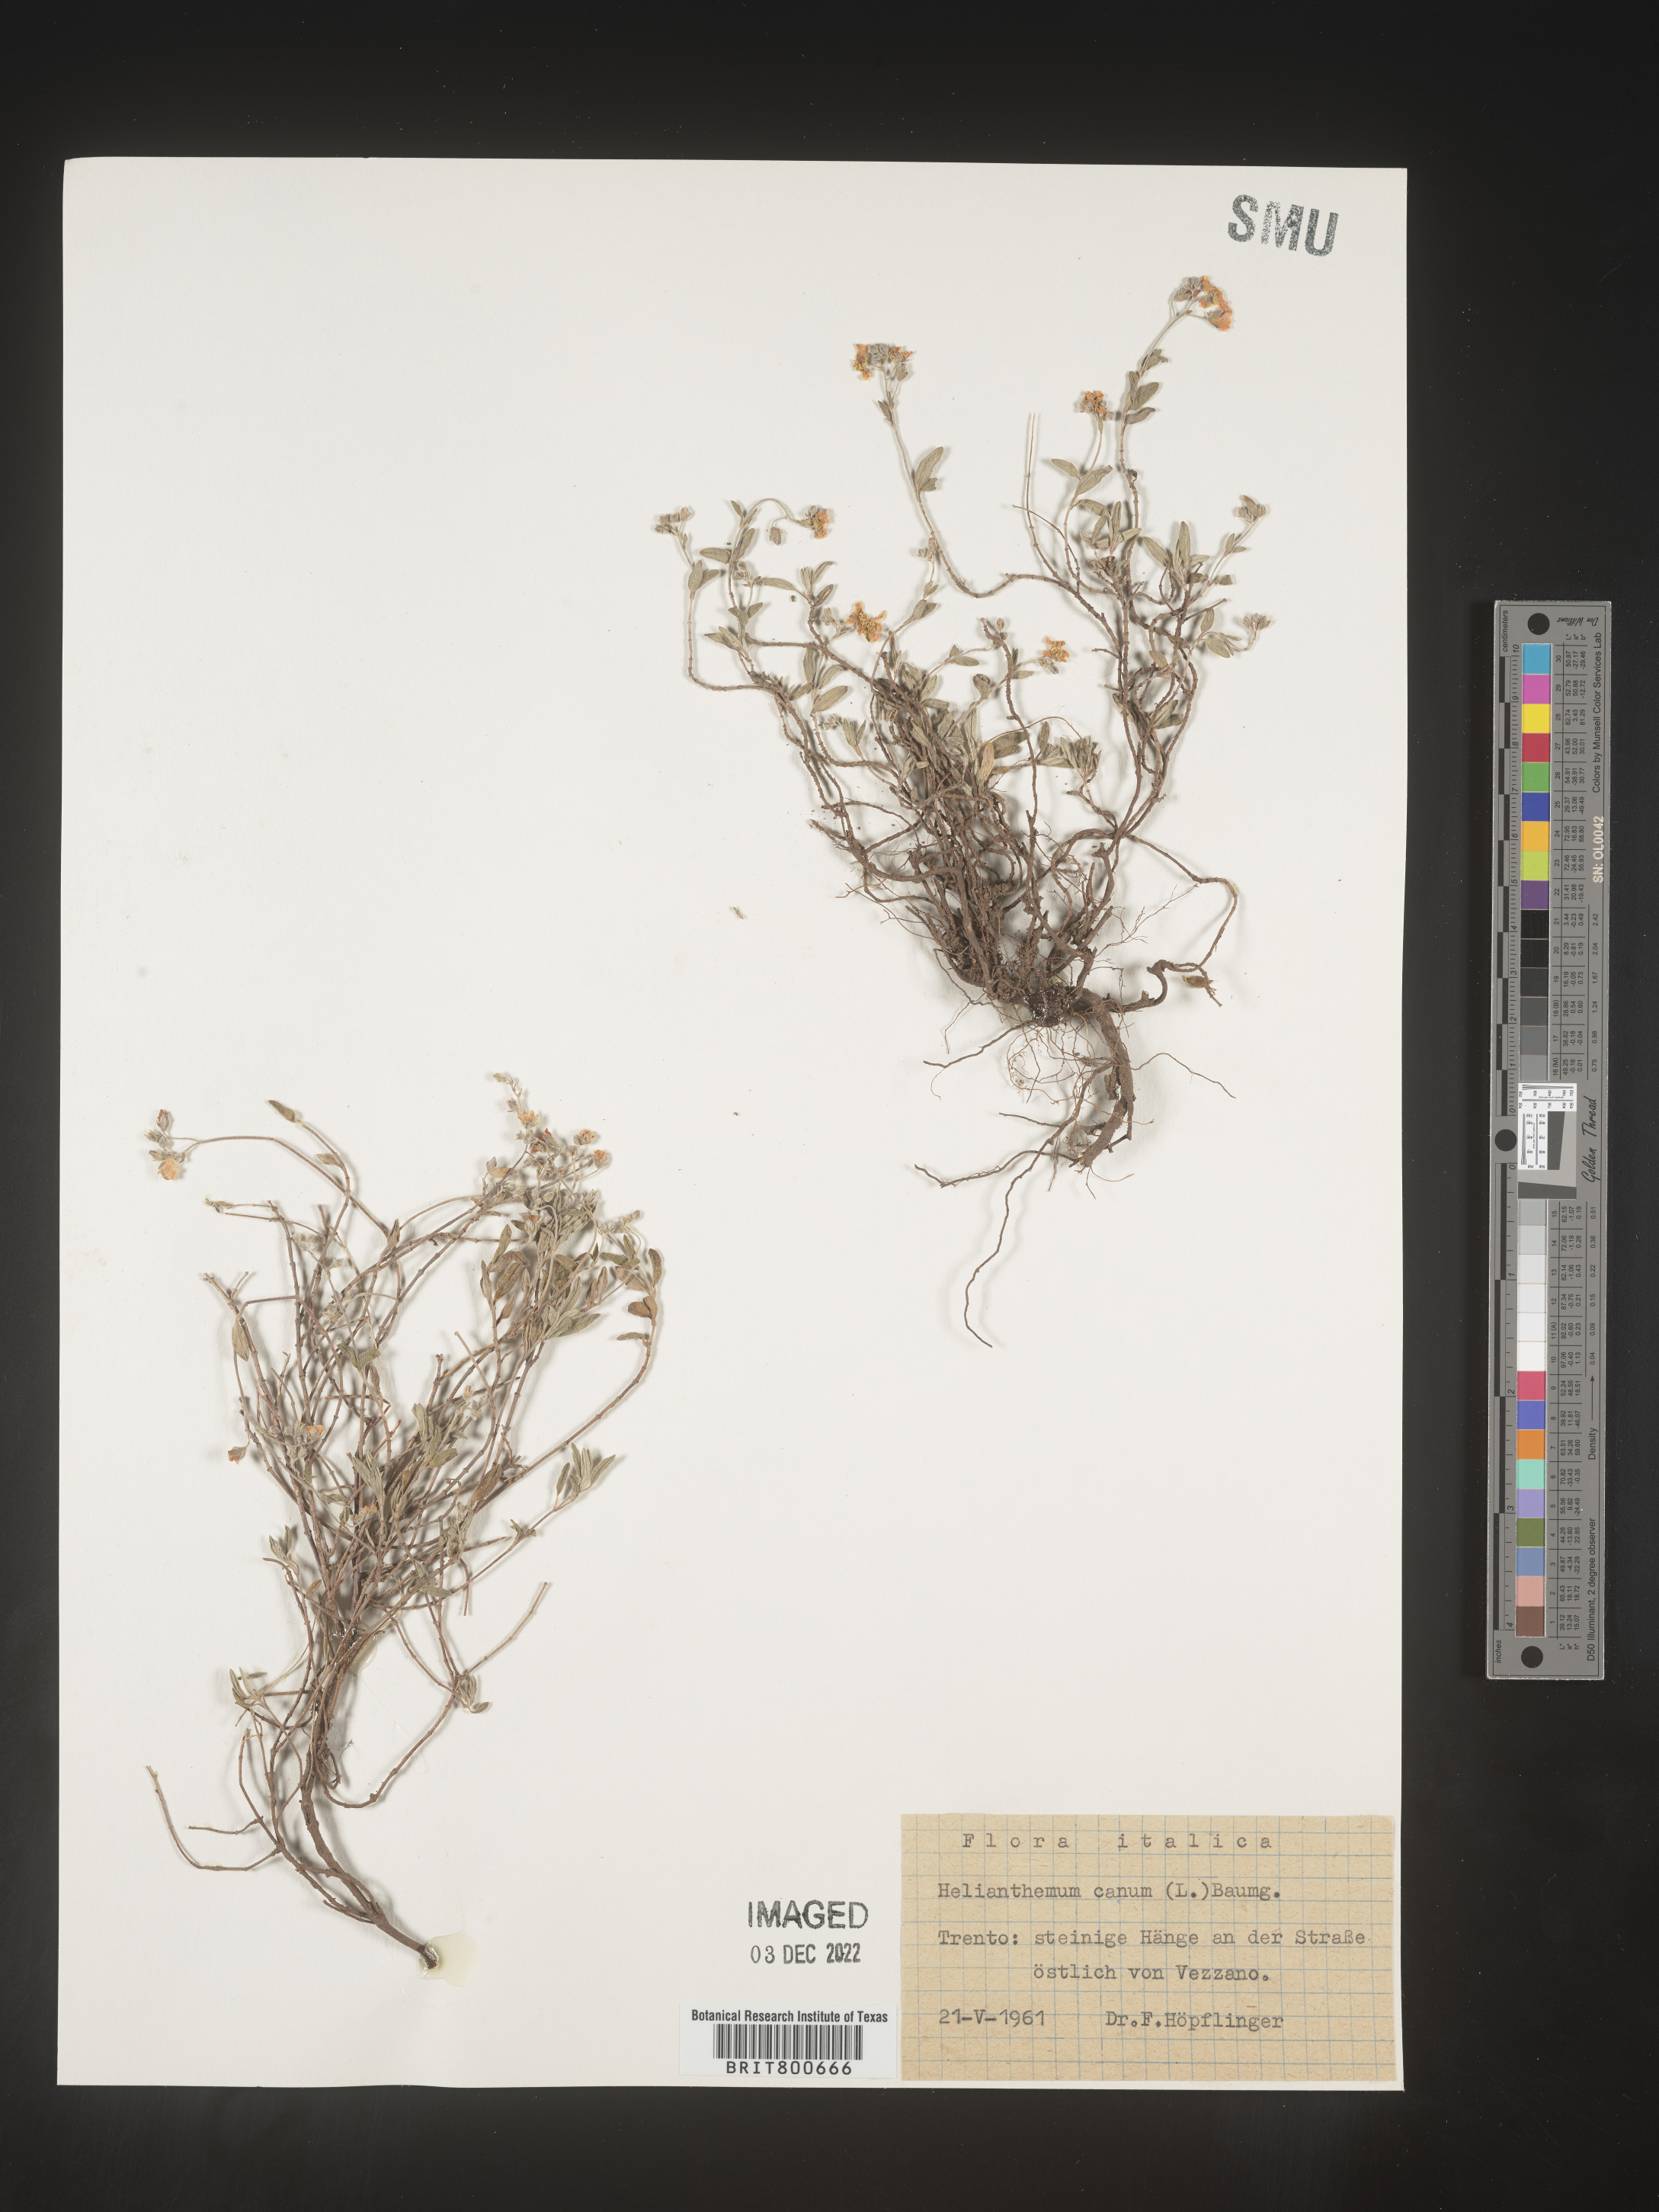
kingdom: Plantae
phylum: Tracheophyta
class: Magnoliopsida
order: Malvales
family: Cistaceae
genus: Helianthemum
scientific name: Helianthemum
